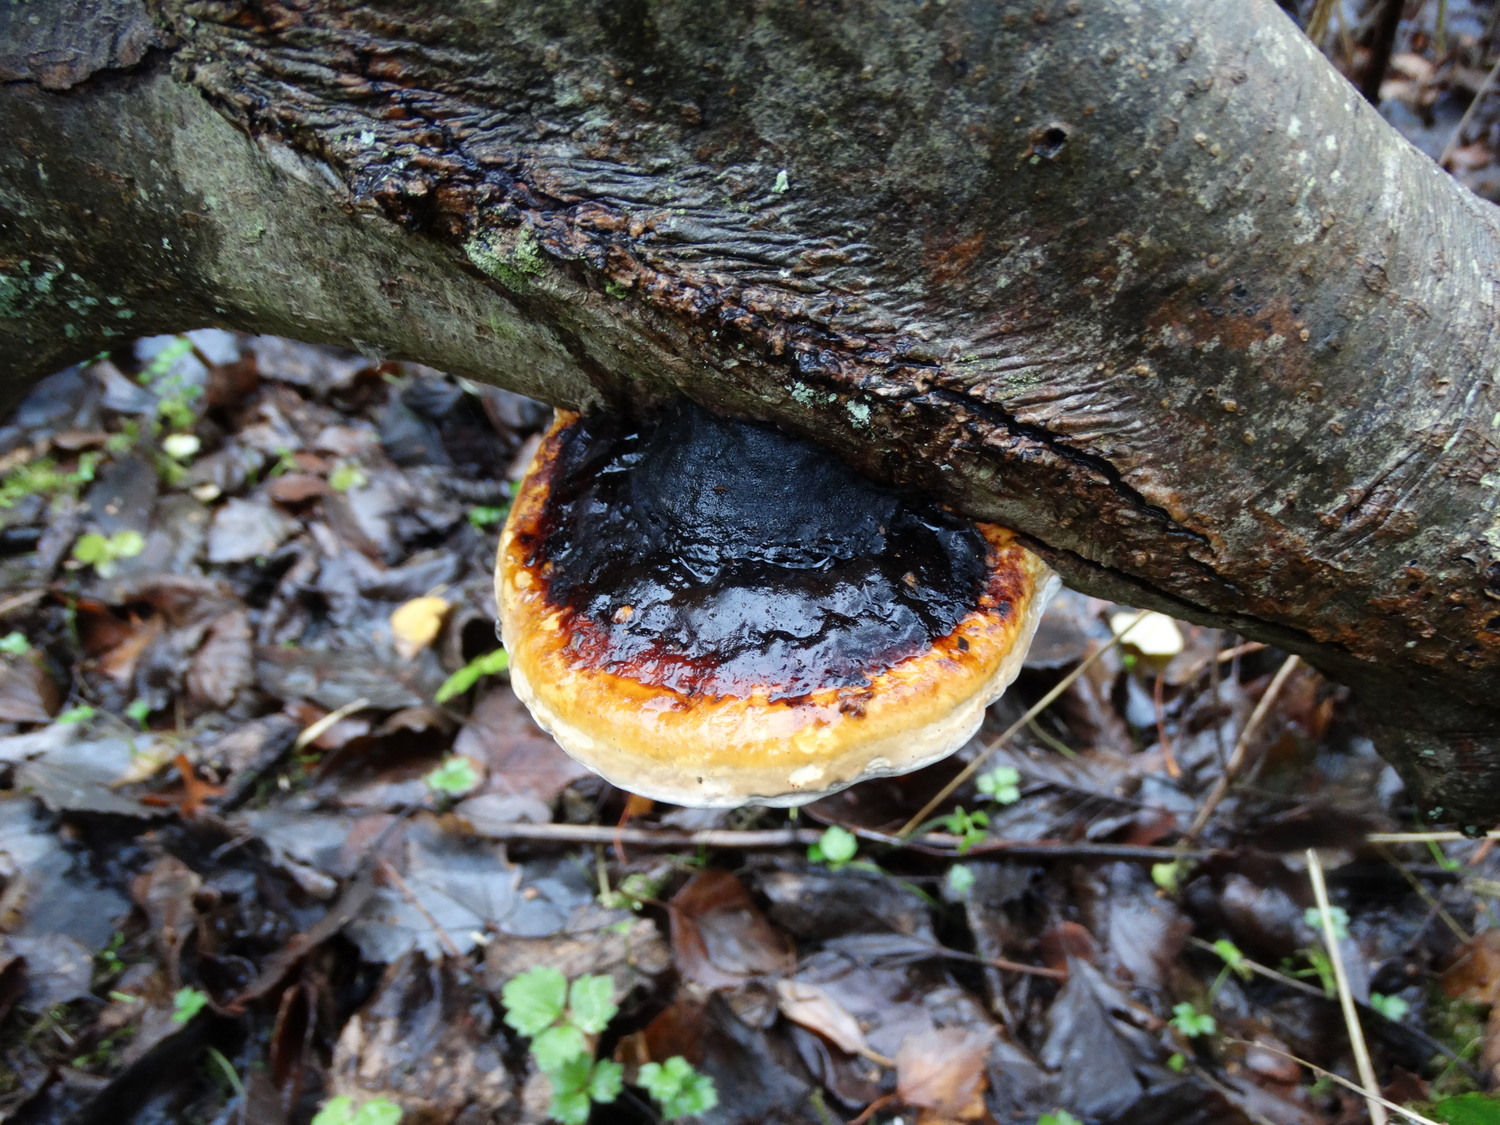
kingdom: Fungi
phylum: Basidiomycota
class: Agaricomycetes
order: Polyporales
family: Fomitopsidaceae
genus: Fomitopsis
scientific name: Fomitopsis pinicola
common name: randbæltet hovporesvamp
